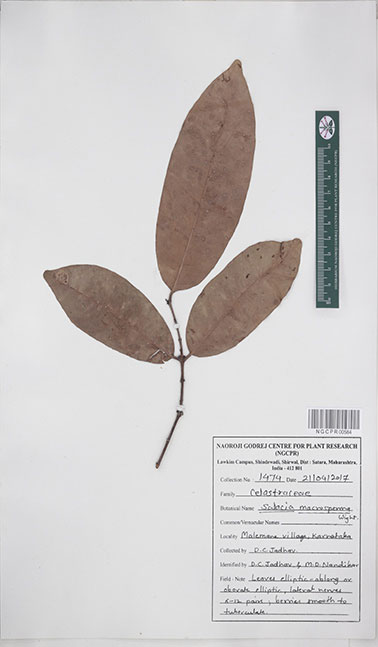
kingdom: Plantae
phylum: Tracheophyta
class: Magnoliopsida
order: Celastrales
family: Celastraceae
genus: Salacia
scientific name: Salacia macrosperma
